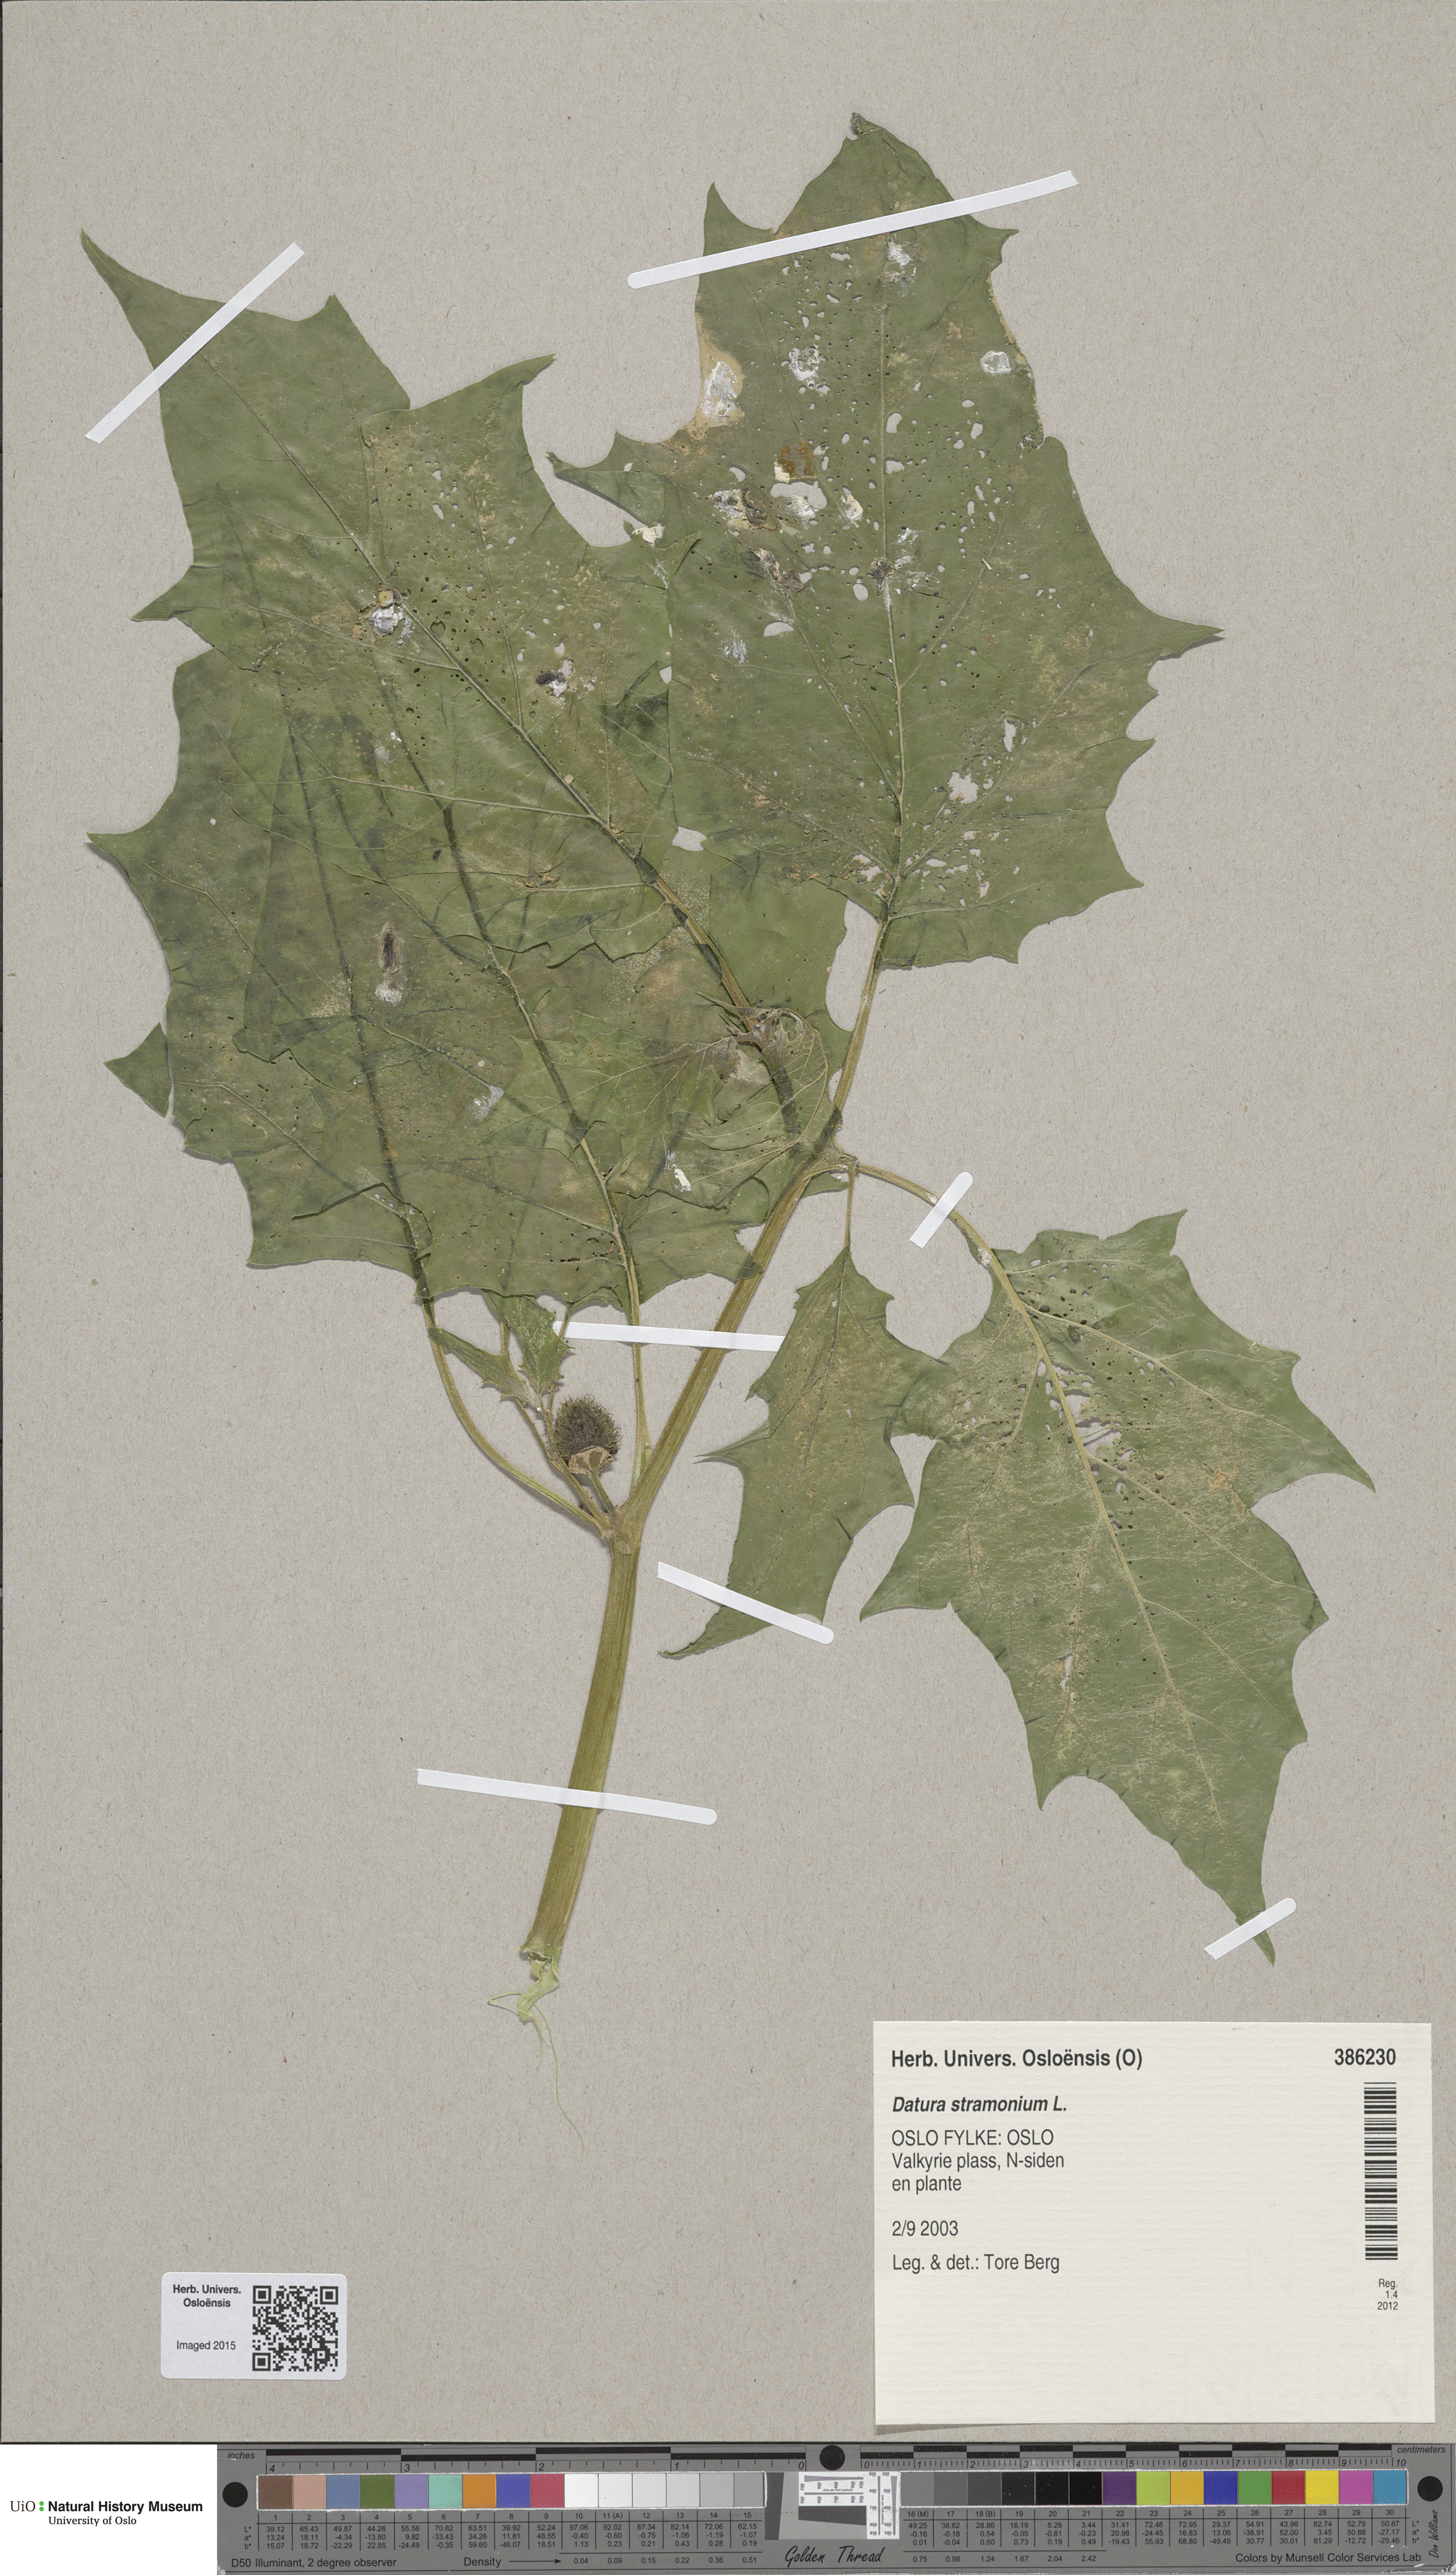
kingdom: Plantae
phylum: Tracheophyta
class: Magnoliopsida
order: Solanales
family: Solanaceae
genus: Datura
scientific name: Datura stramonium
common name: Thorn-apple
